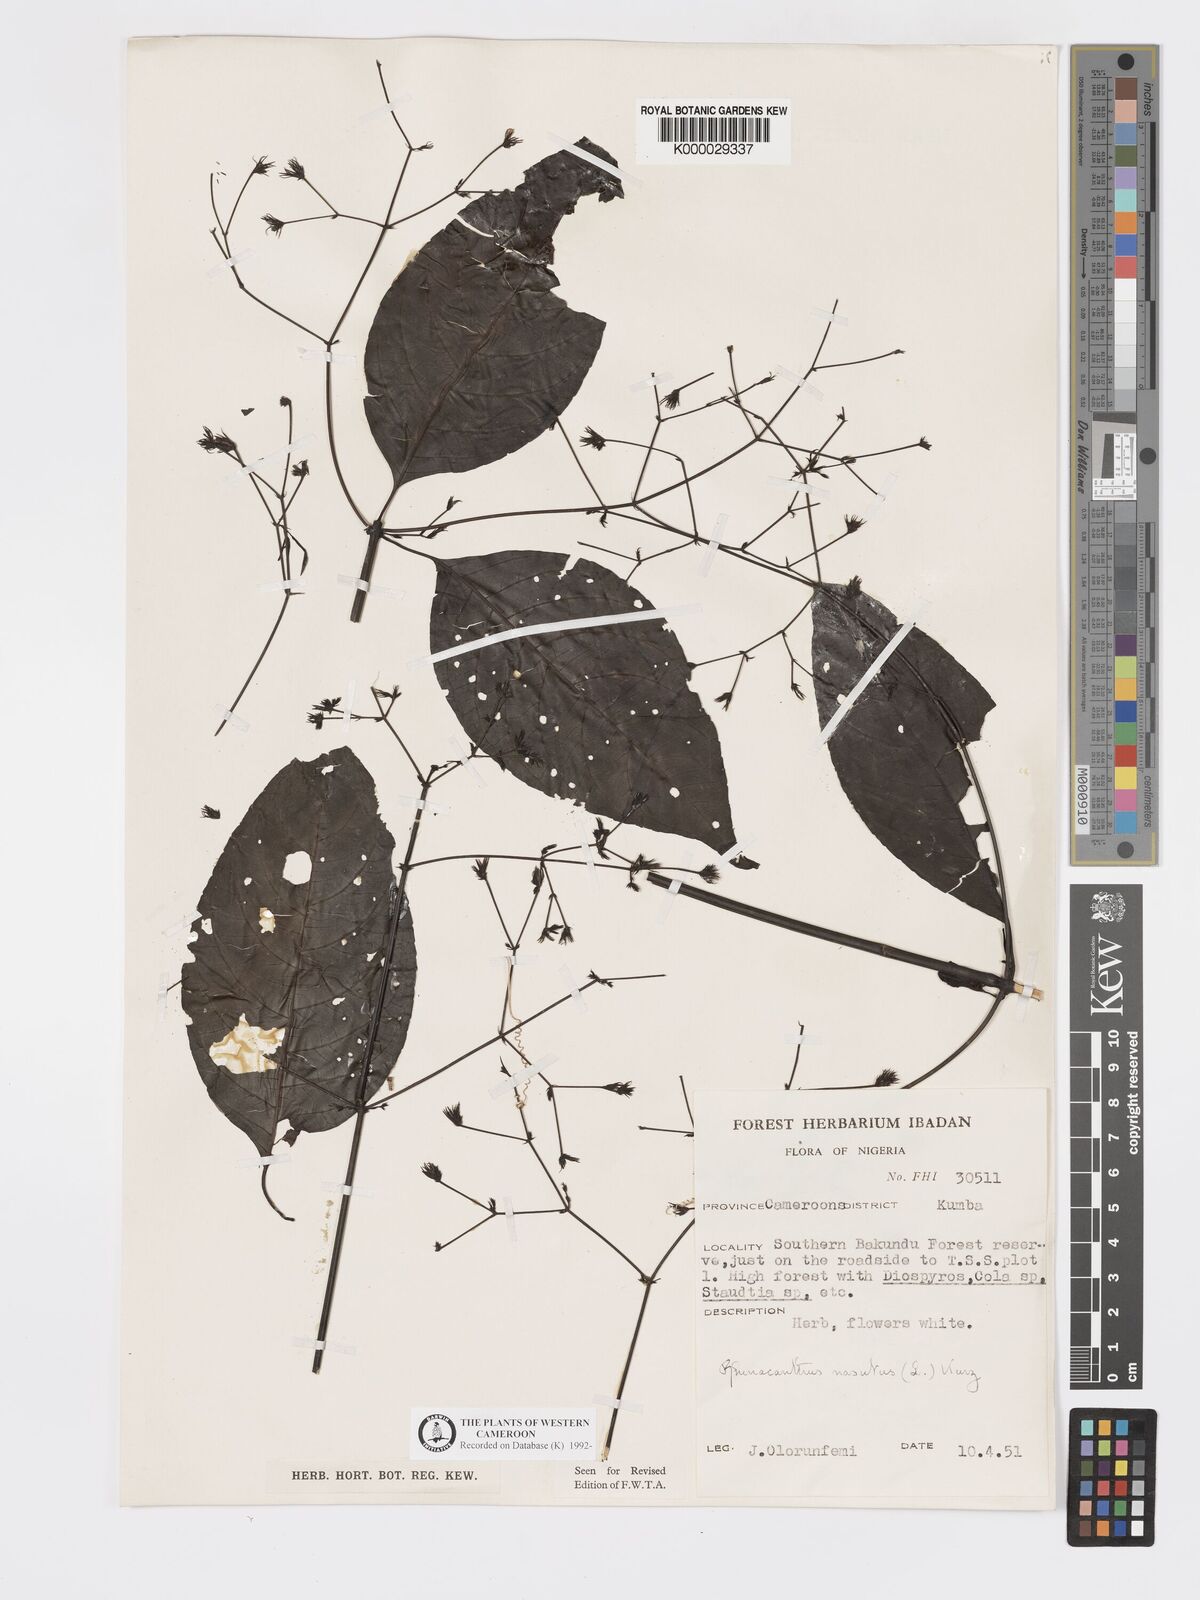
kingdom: Plantae
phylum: Tracheophyta
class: Magnoliopsida
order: Lamiales
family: Acanthaceae
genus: Rhinacanthus
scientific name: Rhinacanthus virens
